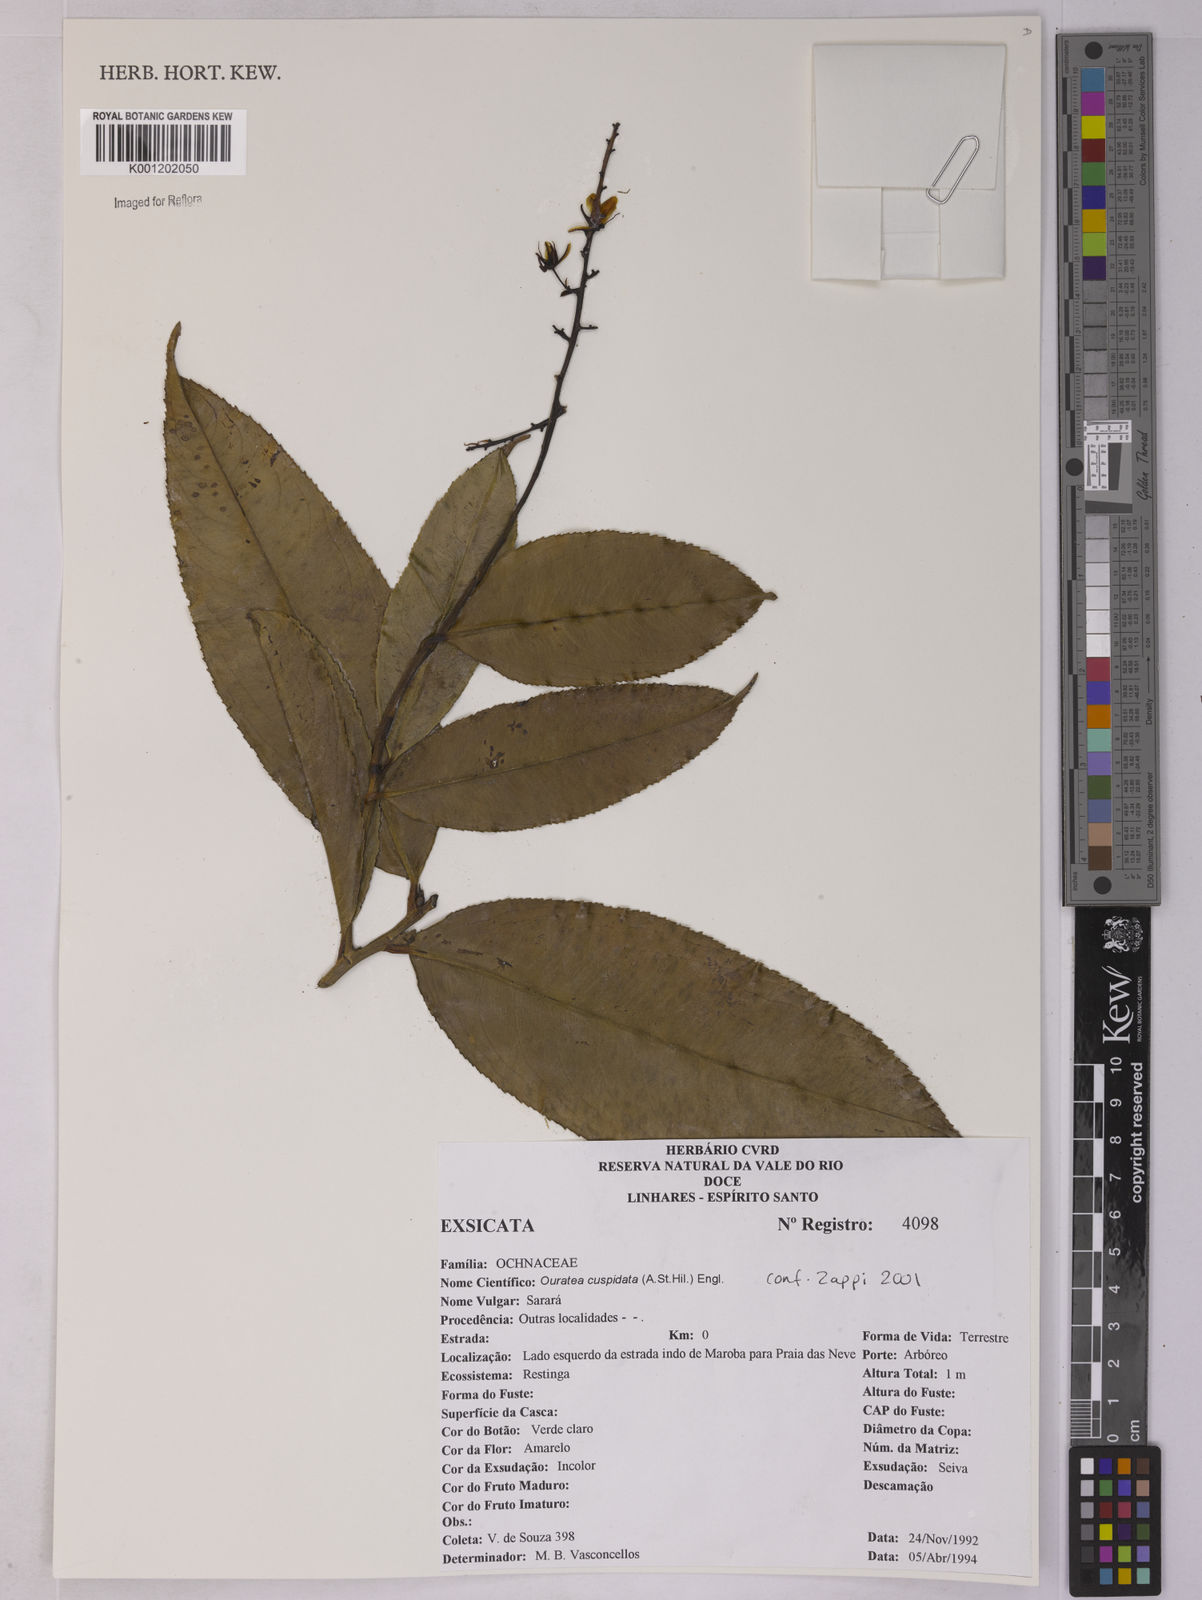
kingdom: Plantae
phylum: Tracheophyta
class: Magnoliopsida
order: Malpighiales
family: Ochnaceae
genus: Ouratea
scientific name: Ouratea cuspidata
